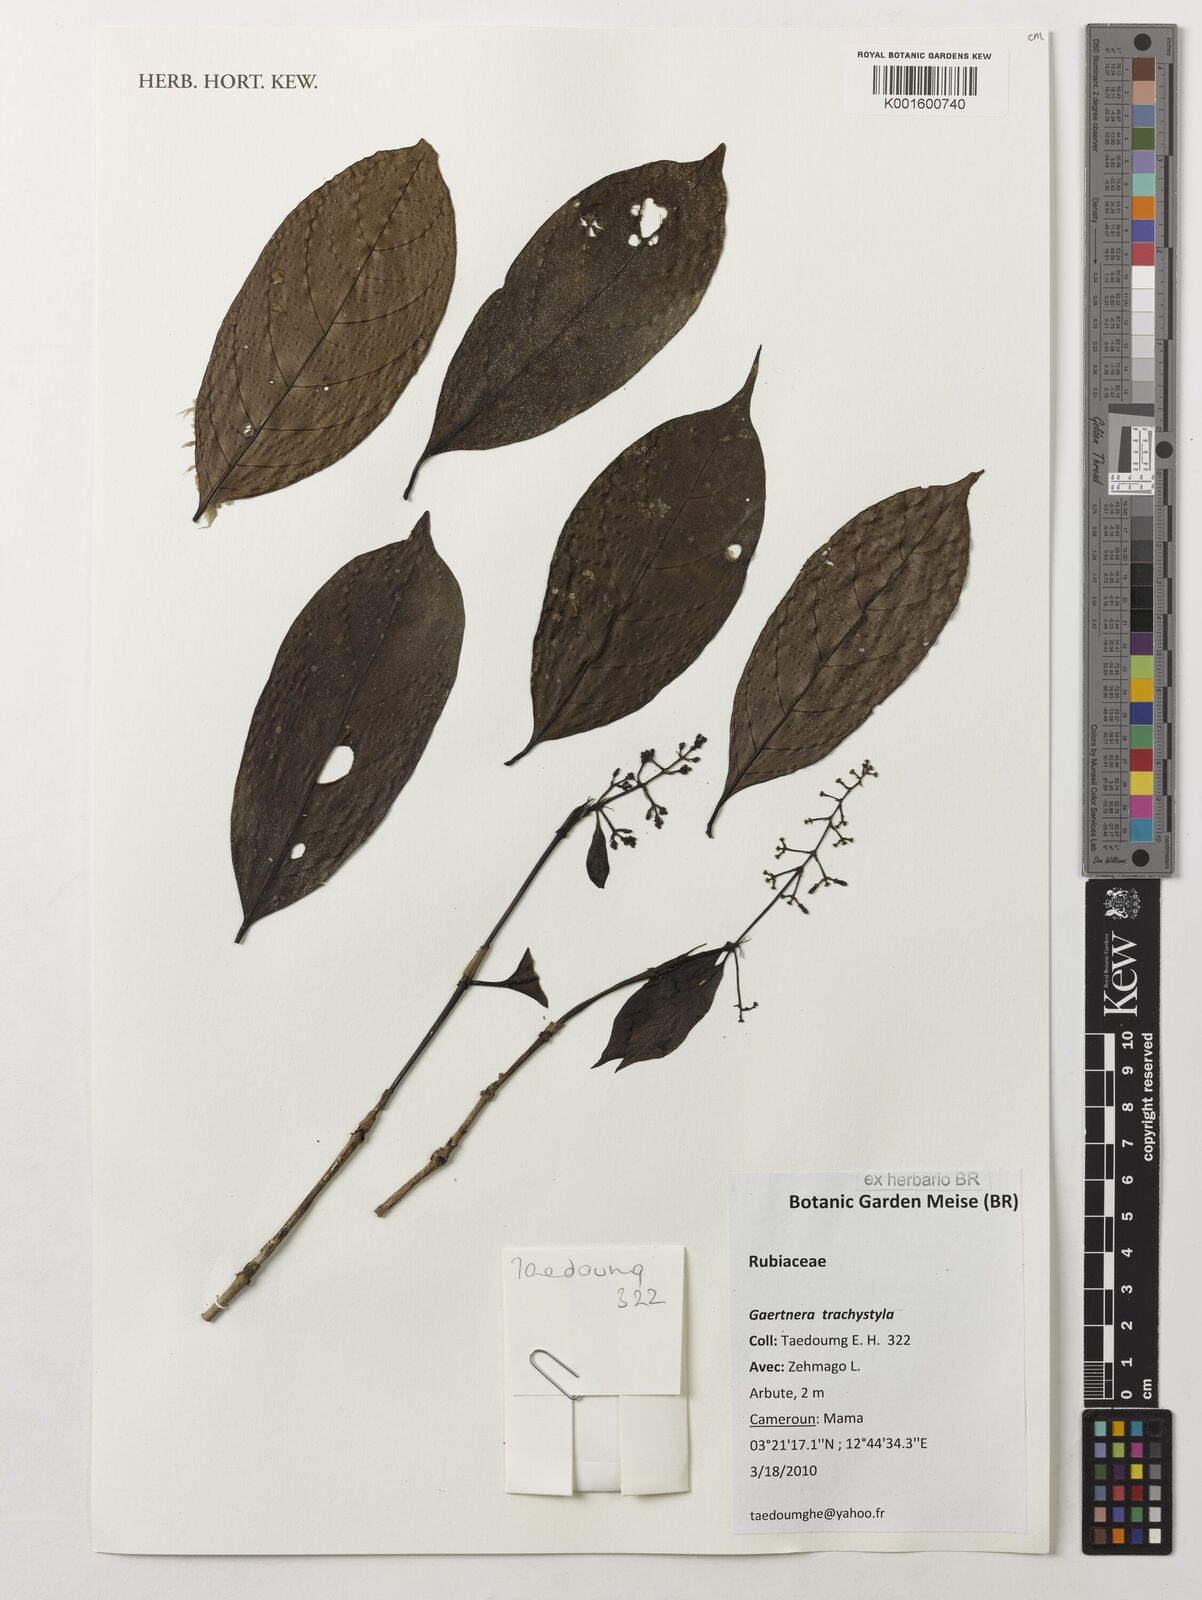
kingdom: Plantae
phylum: Tracheophyta
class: Magnoliopsida
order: Gentianales
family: Rubiaceae
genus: Gaertnera
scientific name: Gaertnera trachystyla
